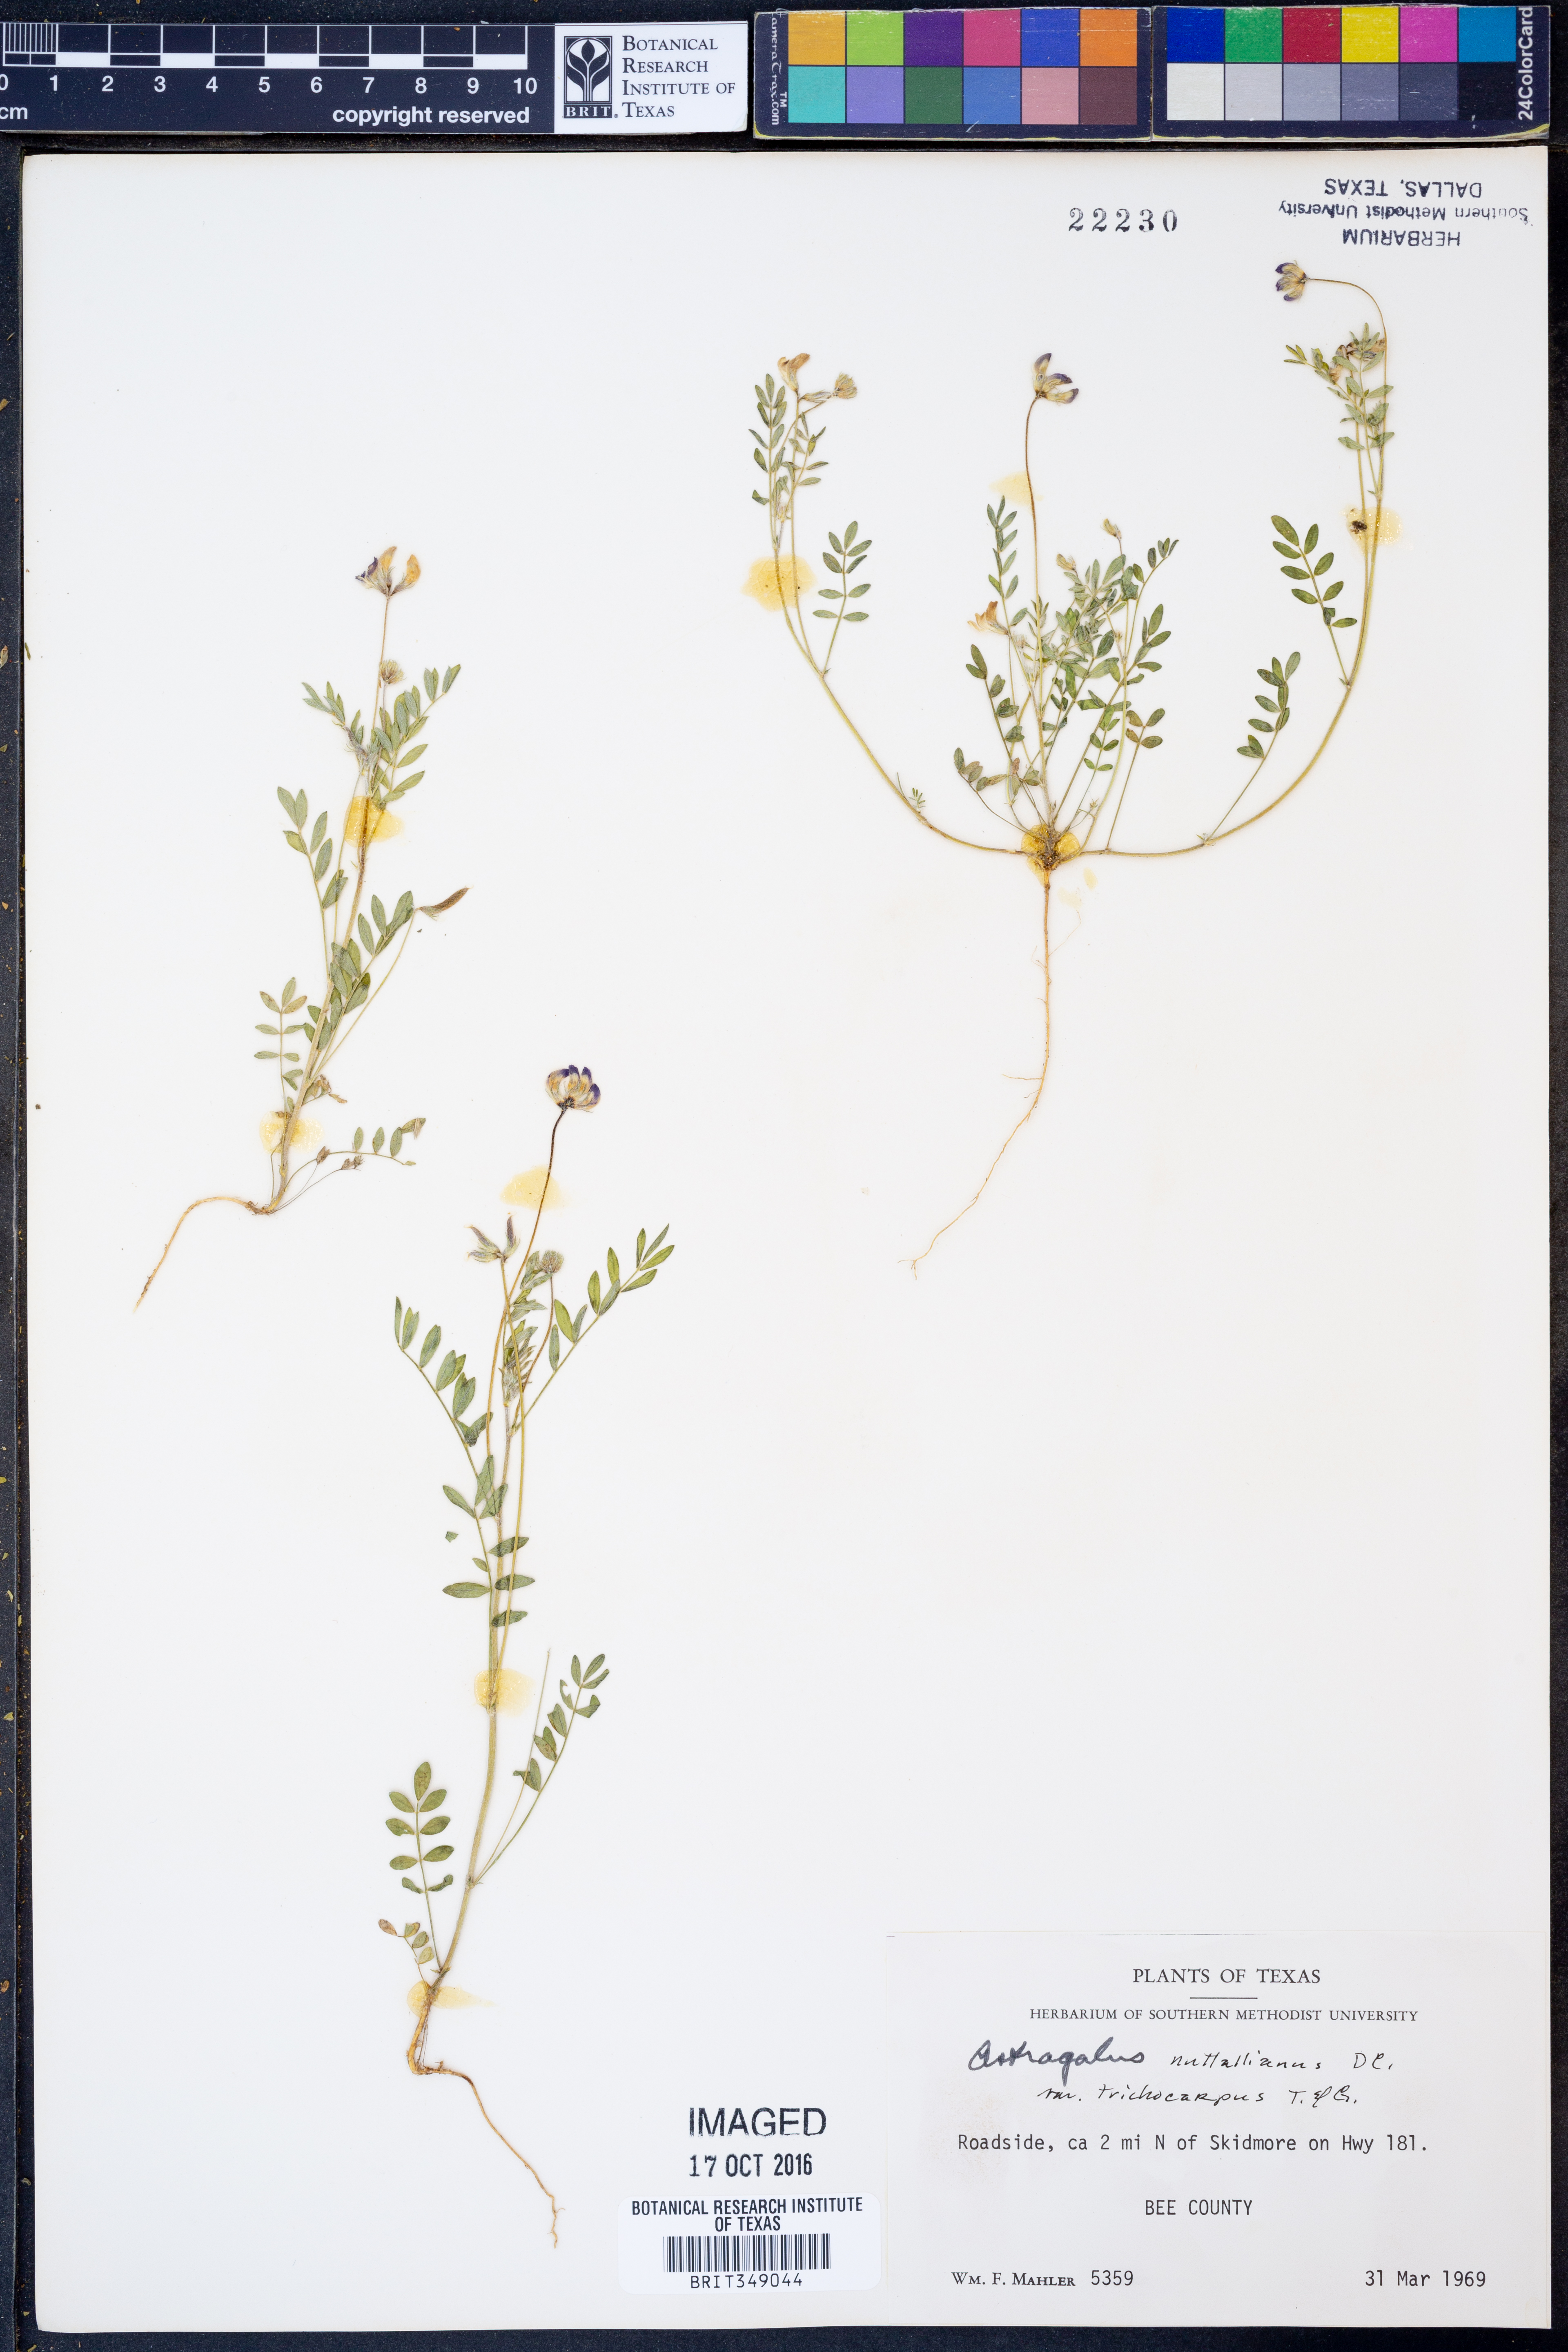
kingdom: Plantae
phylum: Tracheophyta
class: Magnoliopsida
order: Fabales
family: Fabaceae
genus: Astragalus
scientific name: Astragalus nuttallianus
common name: Smallflowered milkvetch
